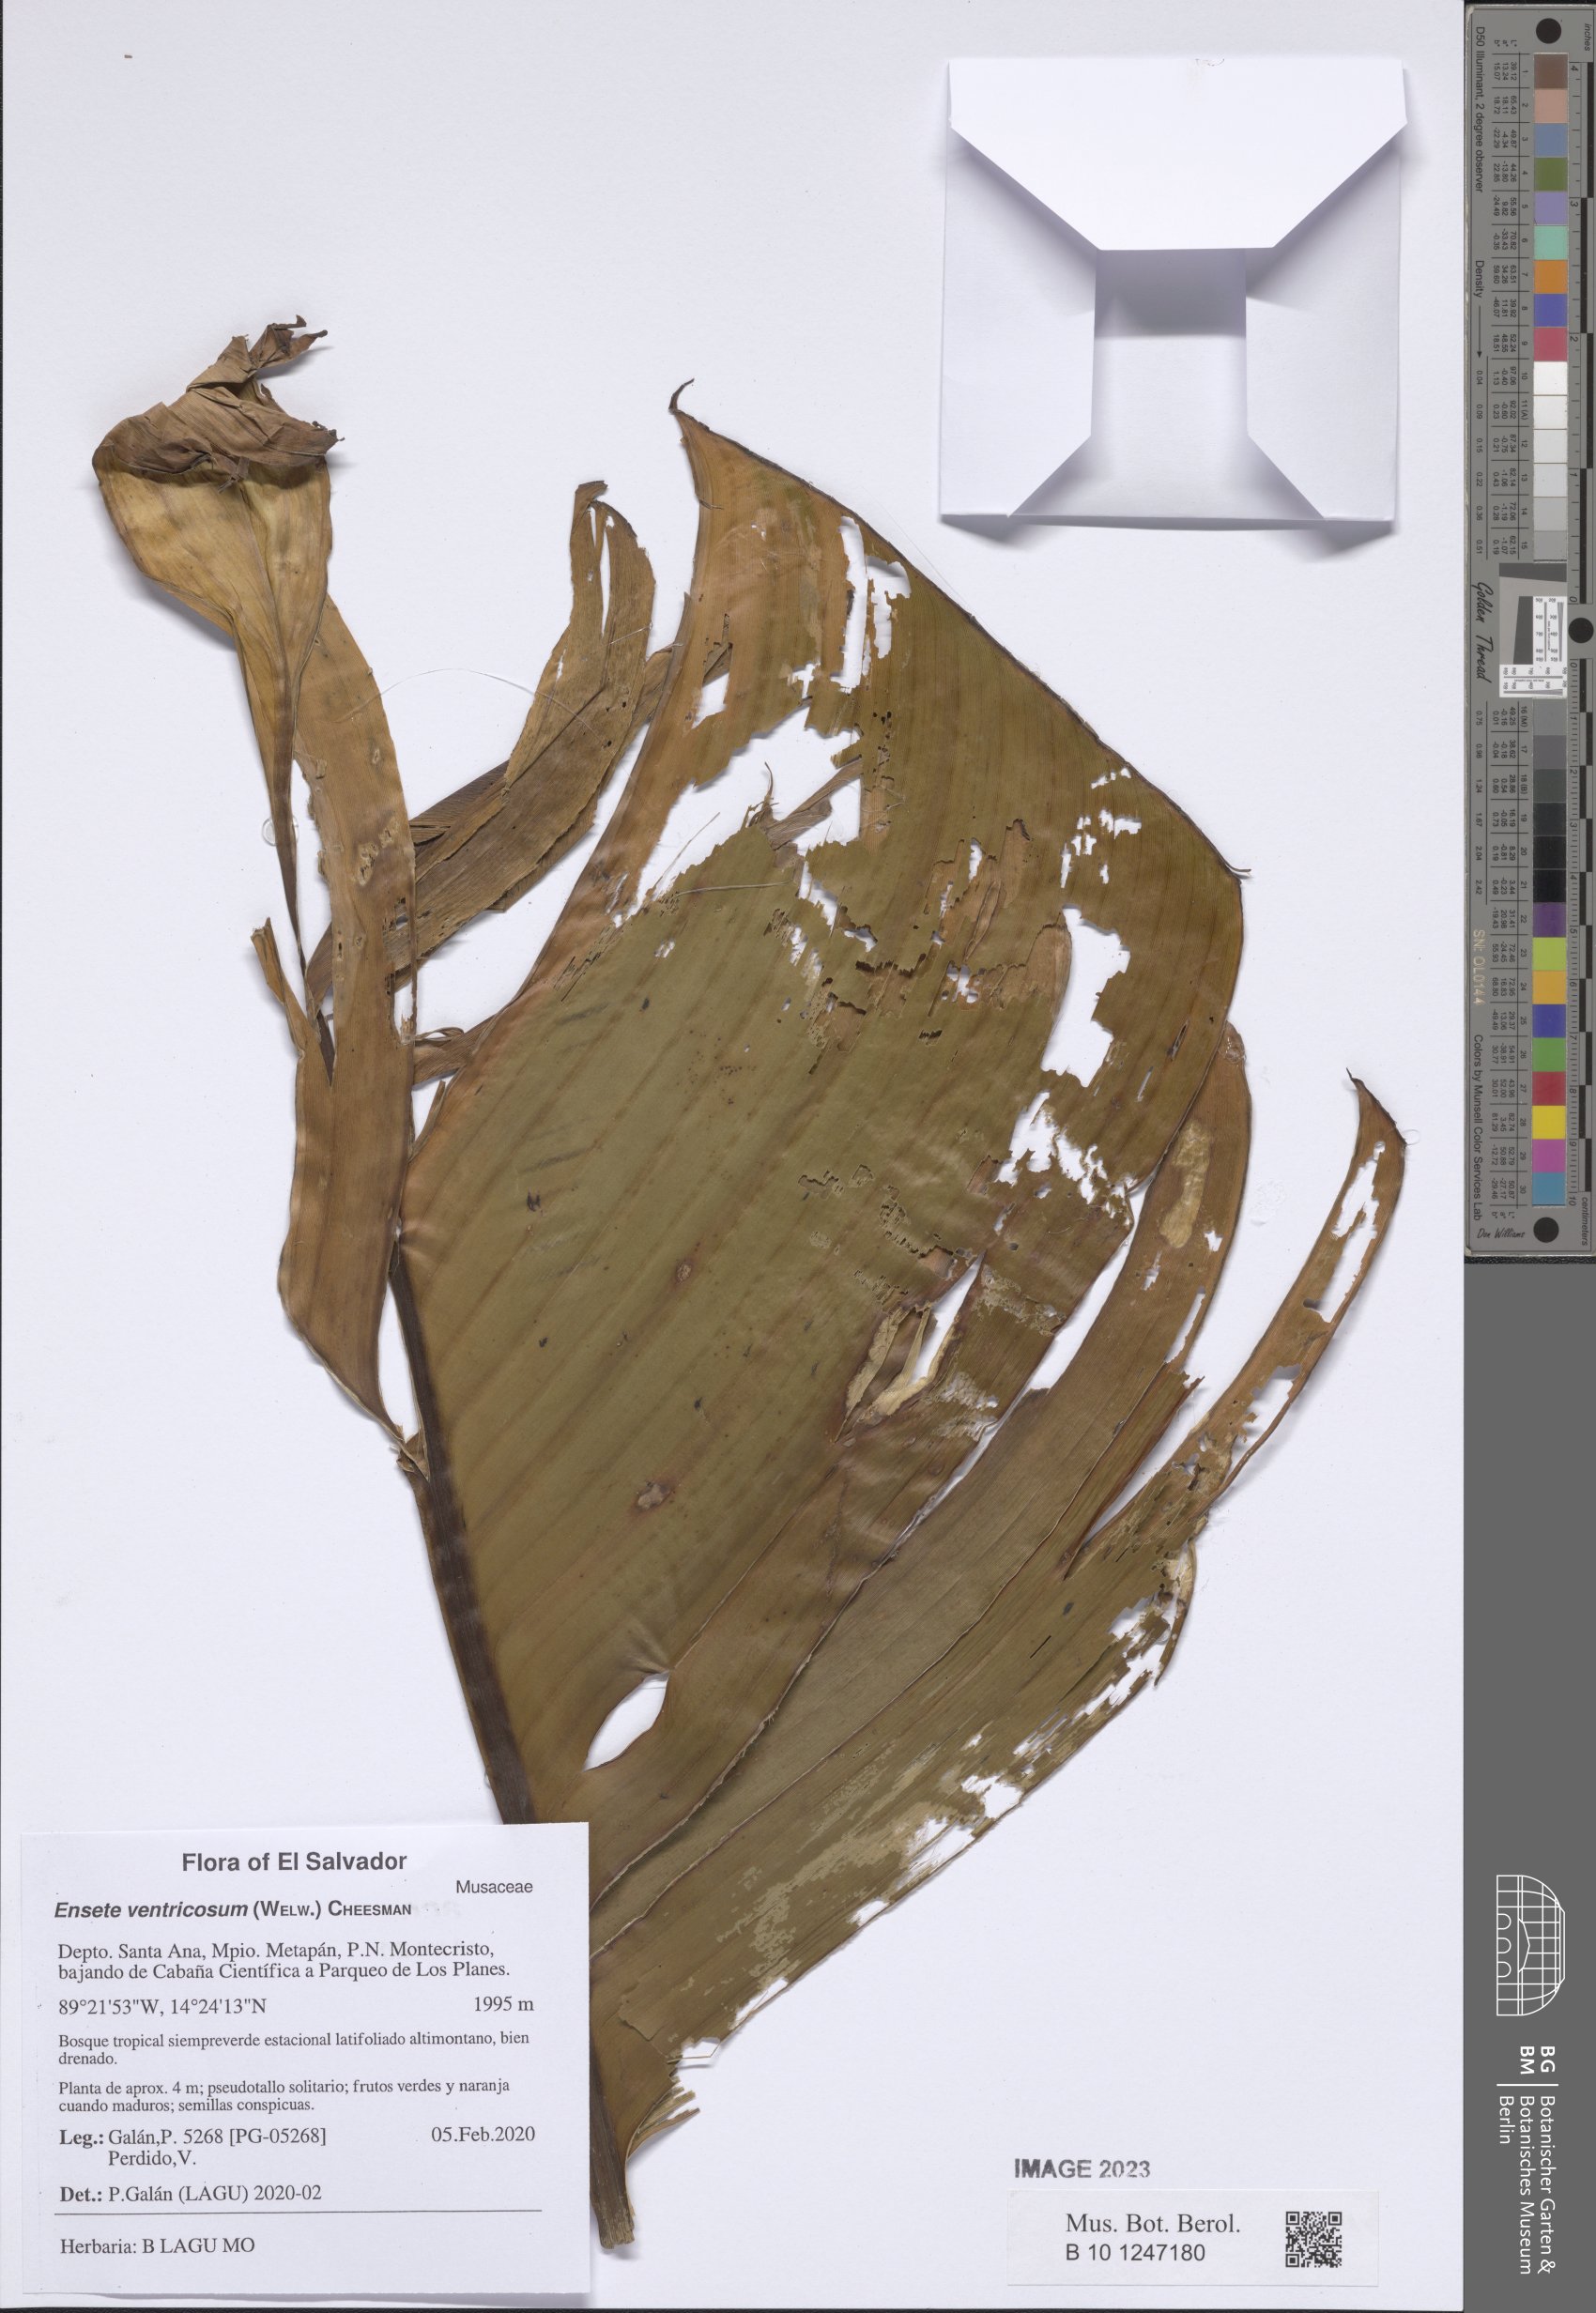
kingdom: Plantae
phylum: Tracheophyta
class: Liliopsida
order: Zingiberales
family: Musaceae
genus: Ensete
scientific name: Ensete ventricosum
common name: Abyssinian banana
